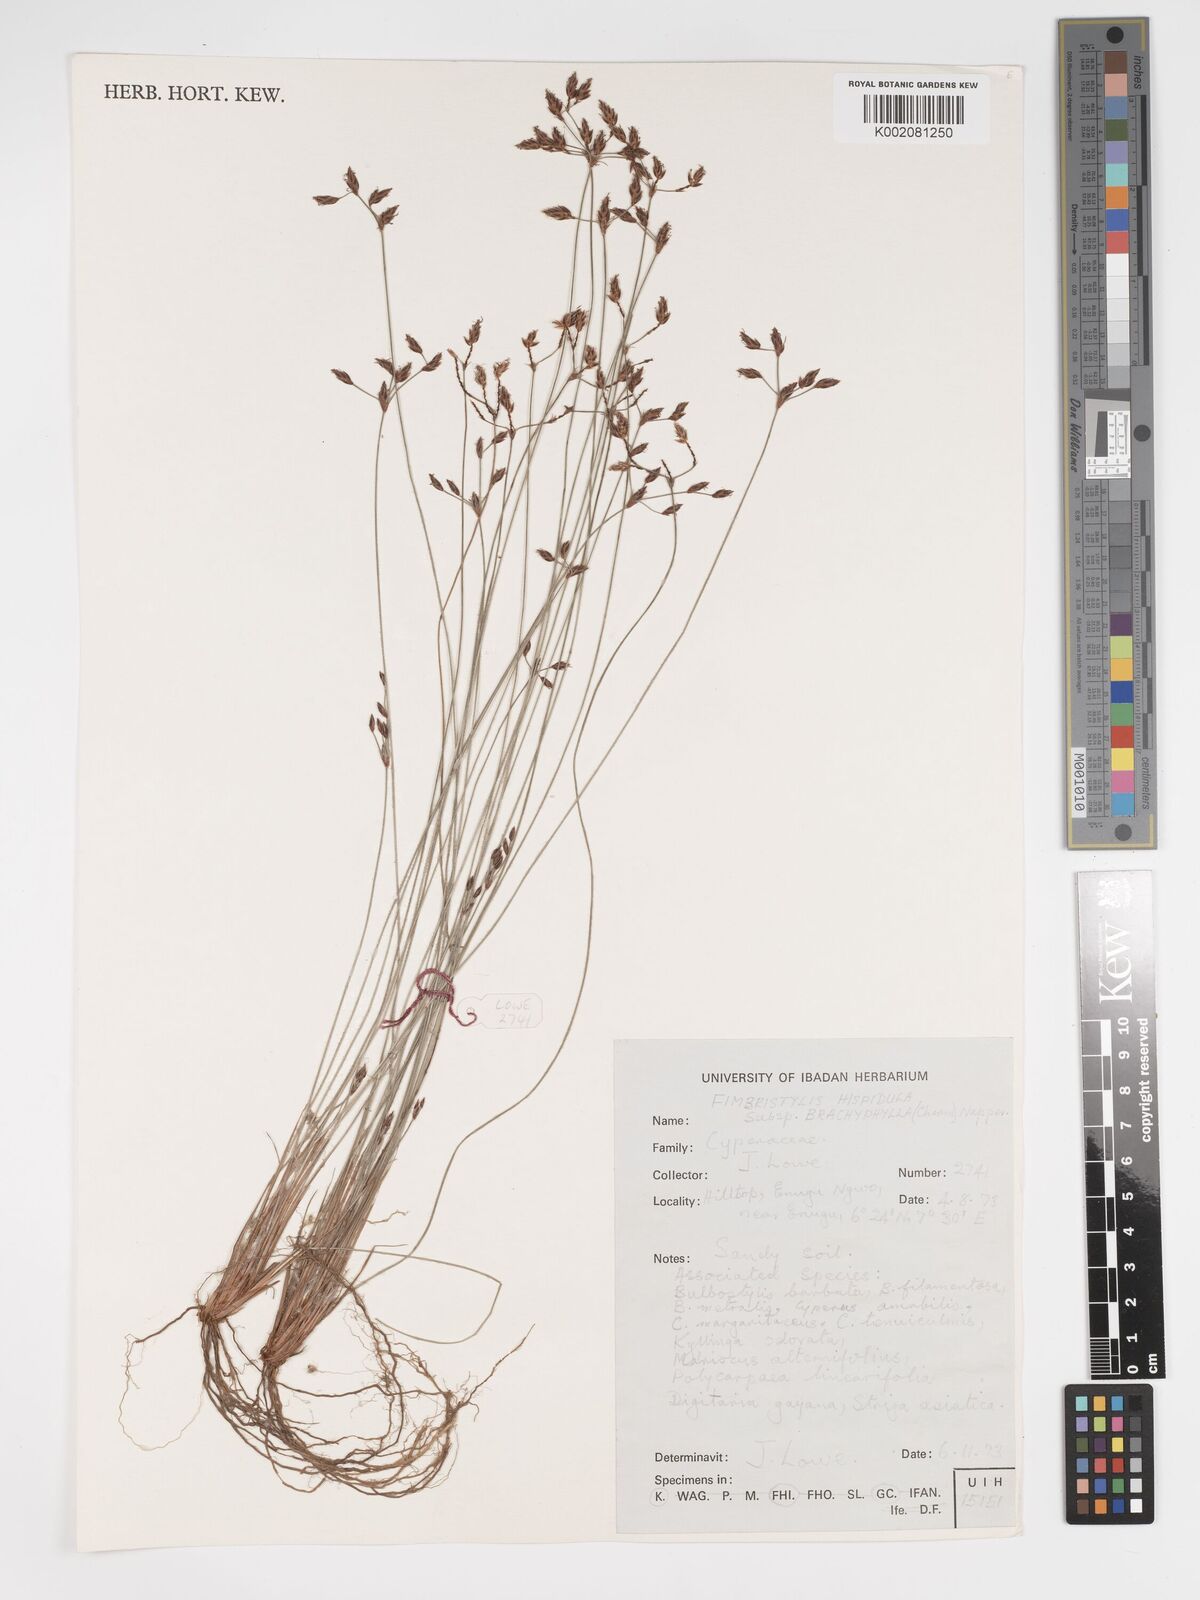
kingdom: Plantae
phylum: Tracheophyta
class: Liliopsida
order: Poales
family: Cyperaceae
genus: Bulbostylis
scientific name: Bulbostylis hispidula
